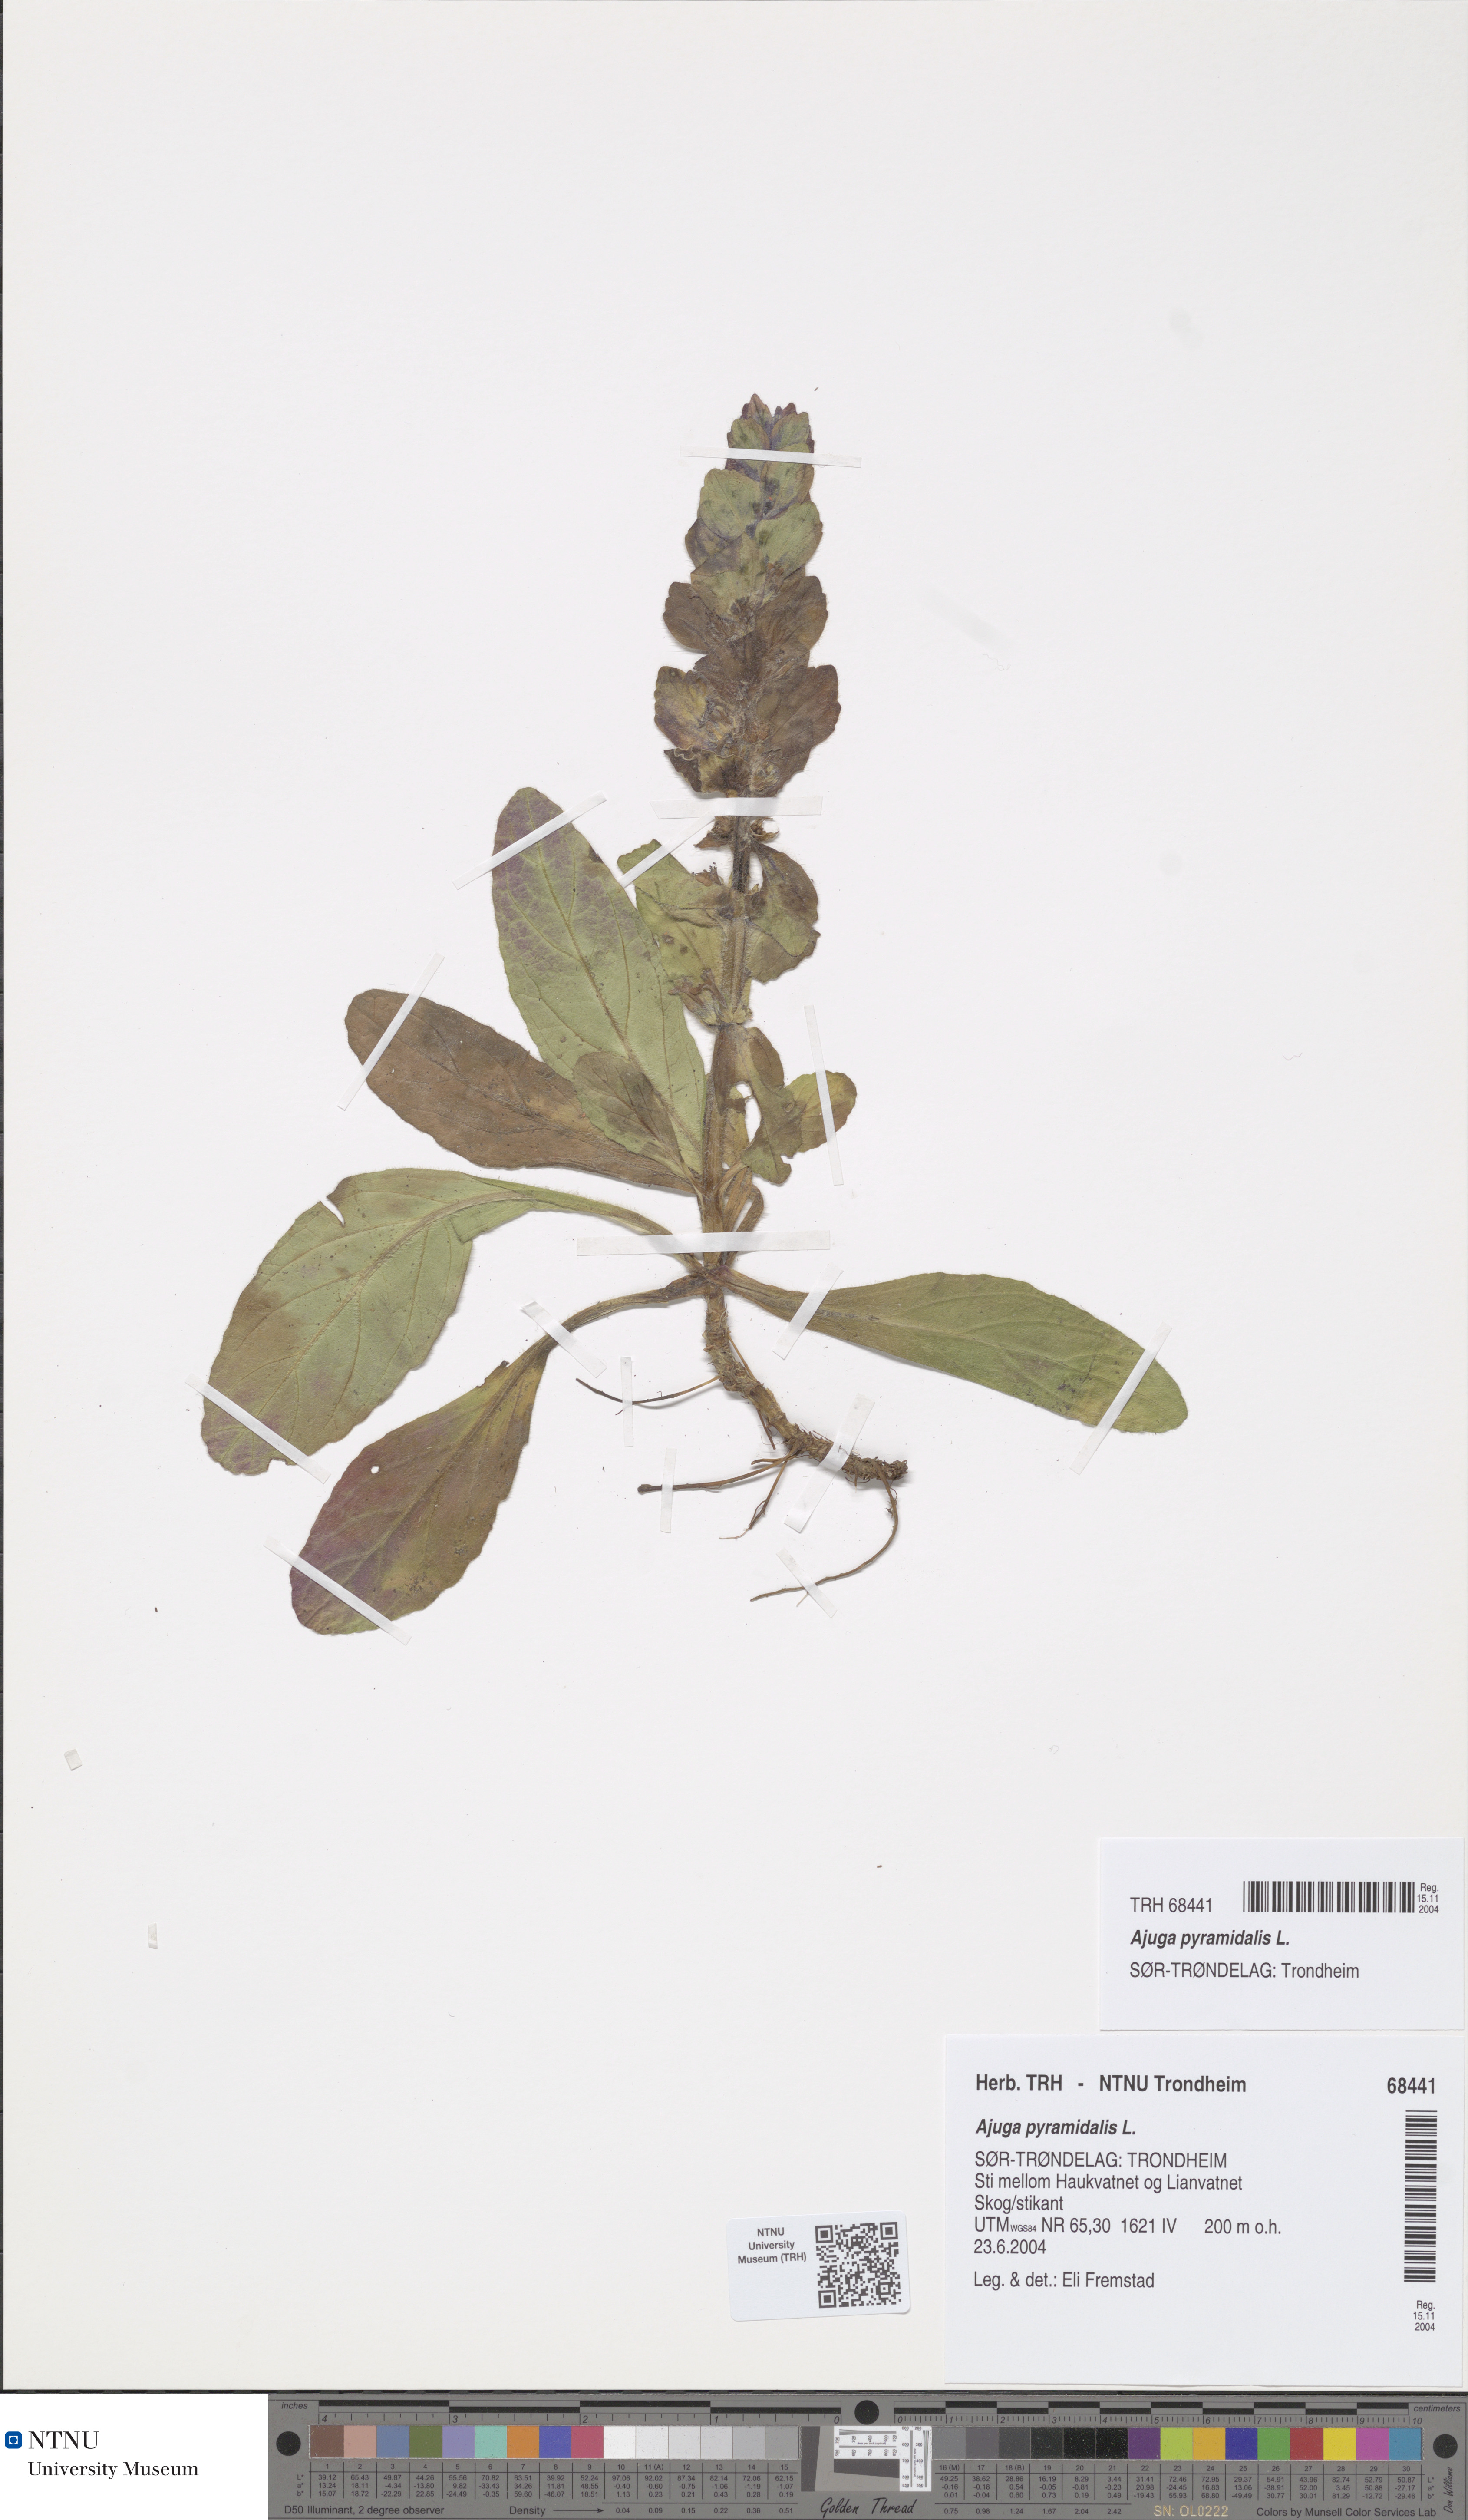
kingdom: Plantae
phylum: Tracheophyta
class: Magnoliopsida
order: Lamiales
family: Lamiaceae
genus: Ajuga
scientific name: Ajuga pyramidalis
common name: Pyramid bugle
